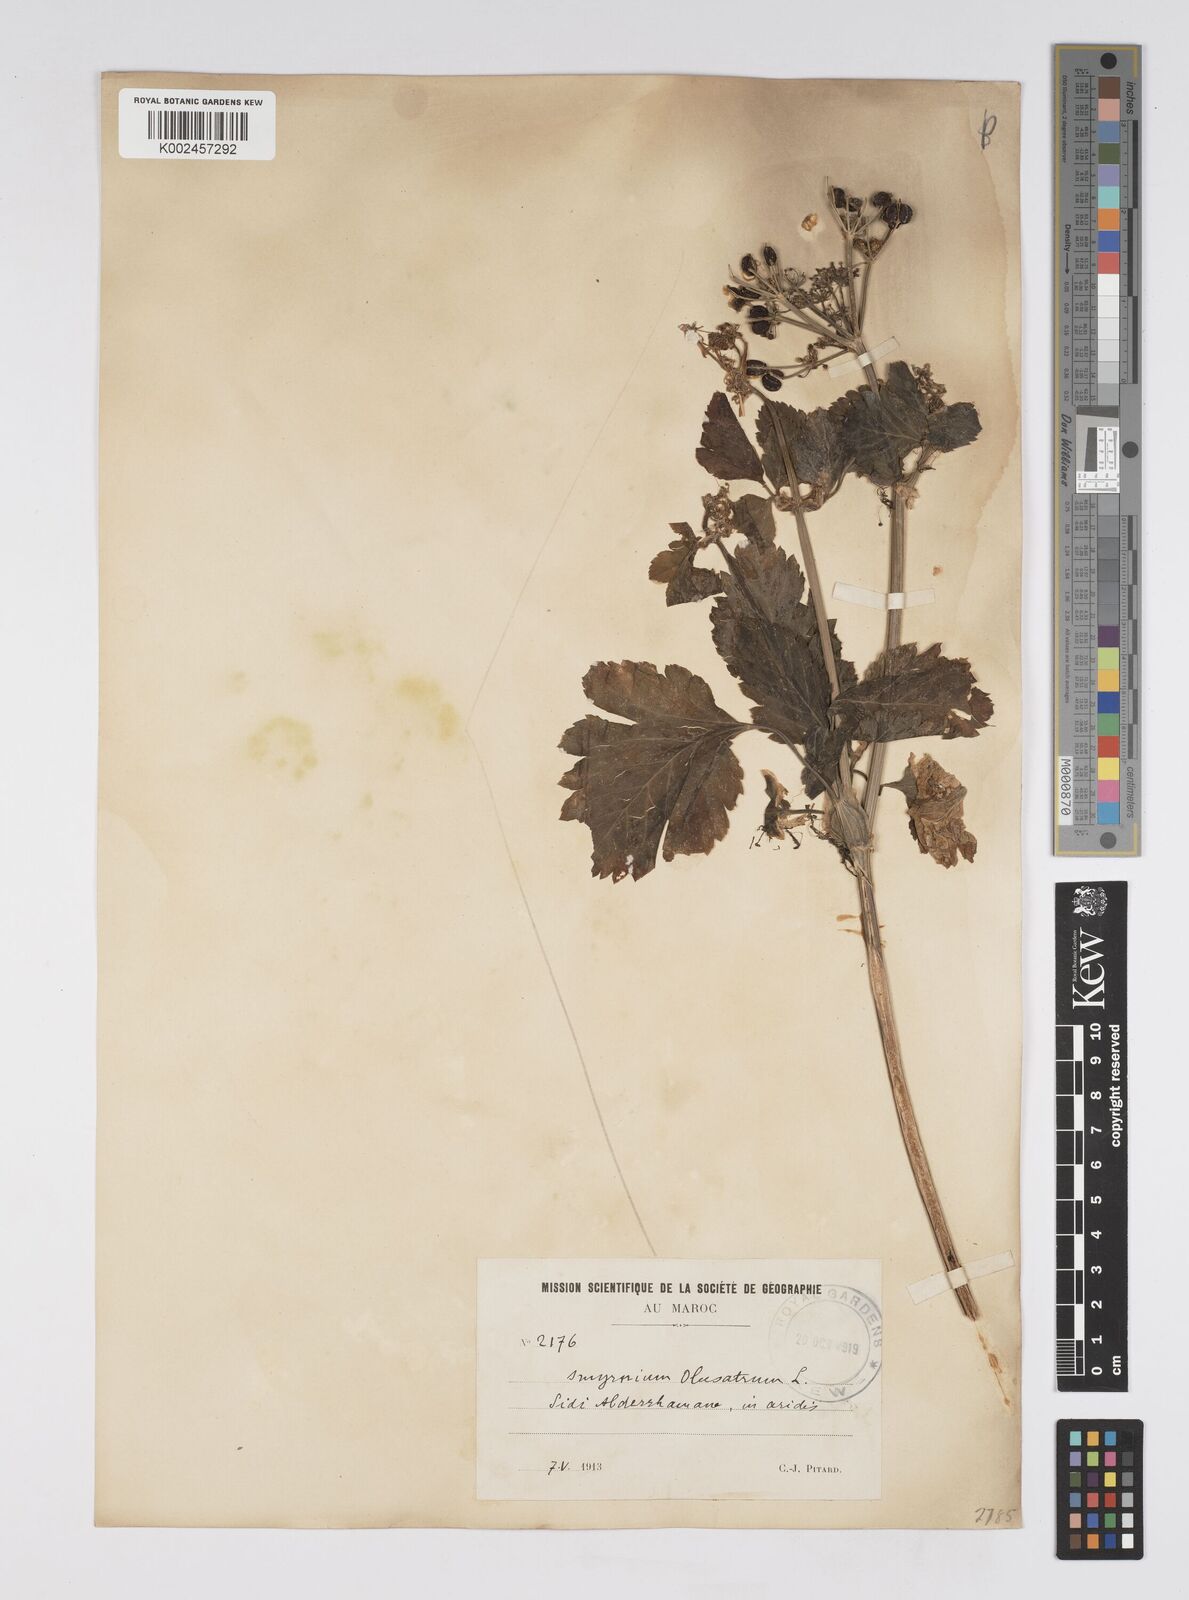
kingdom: Plantae
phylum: Tracheophyta
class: Magnoliopsida
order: Apiales
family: Apiaceae
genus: Smyrnium
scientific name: Smyrnium olusatrum
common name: Alexanders
